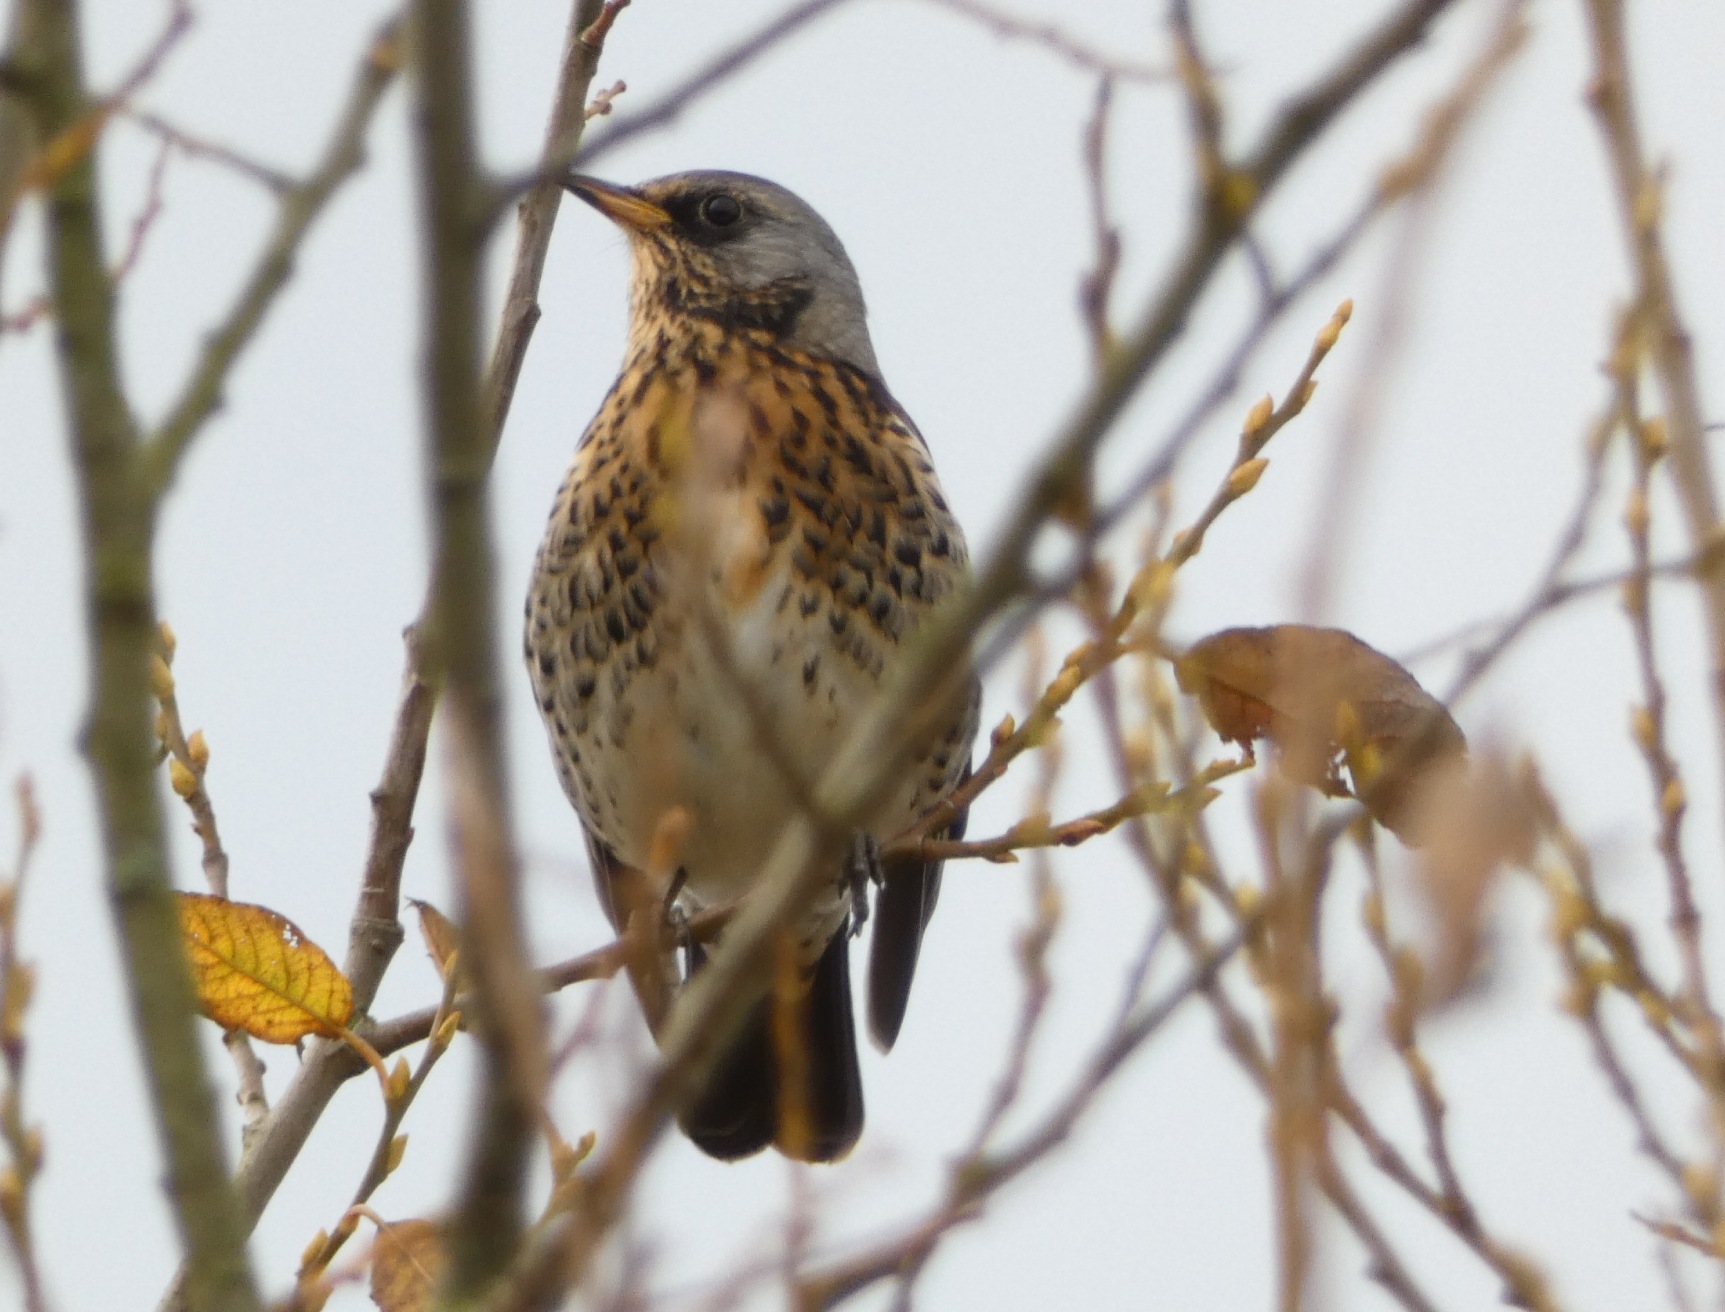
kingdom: Animalia
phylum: Chordata
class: Aves
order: Passeriformes
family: Turdidae
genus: Turdus
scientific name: Turdus pilaris
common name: Sjagger
